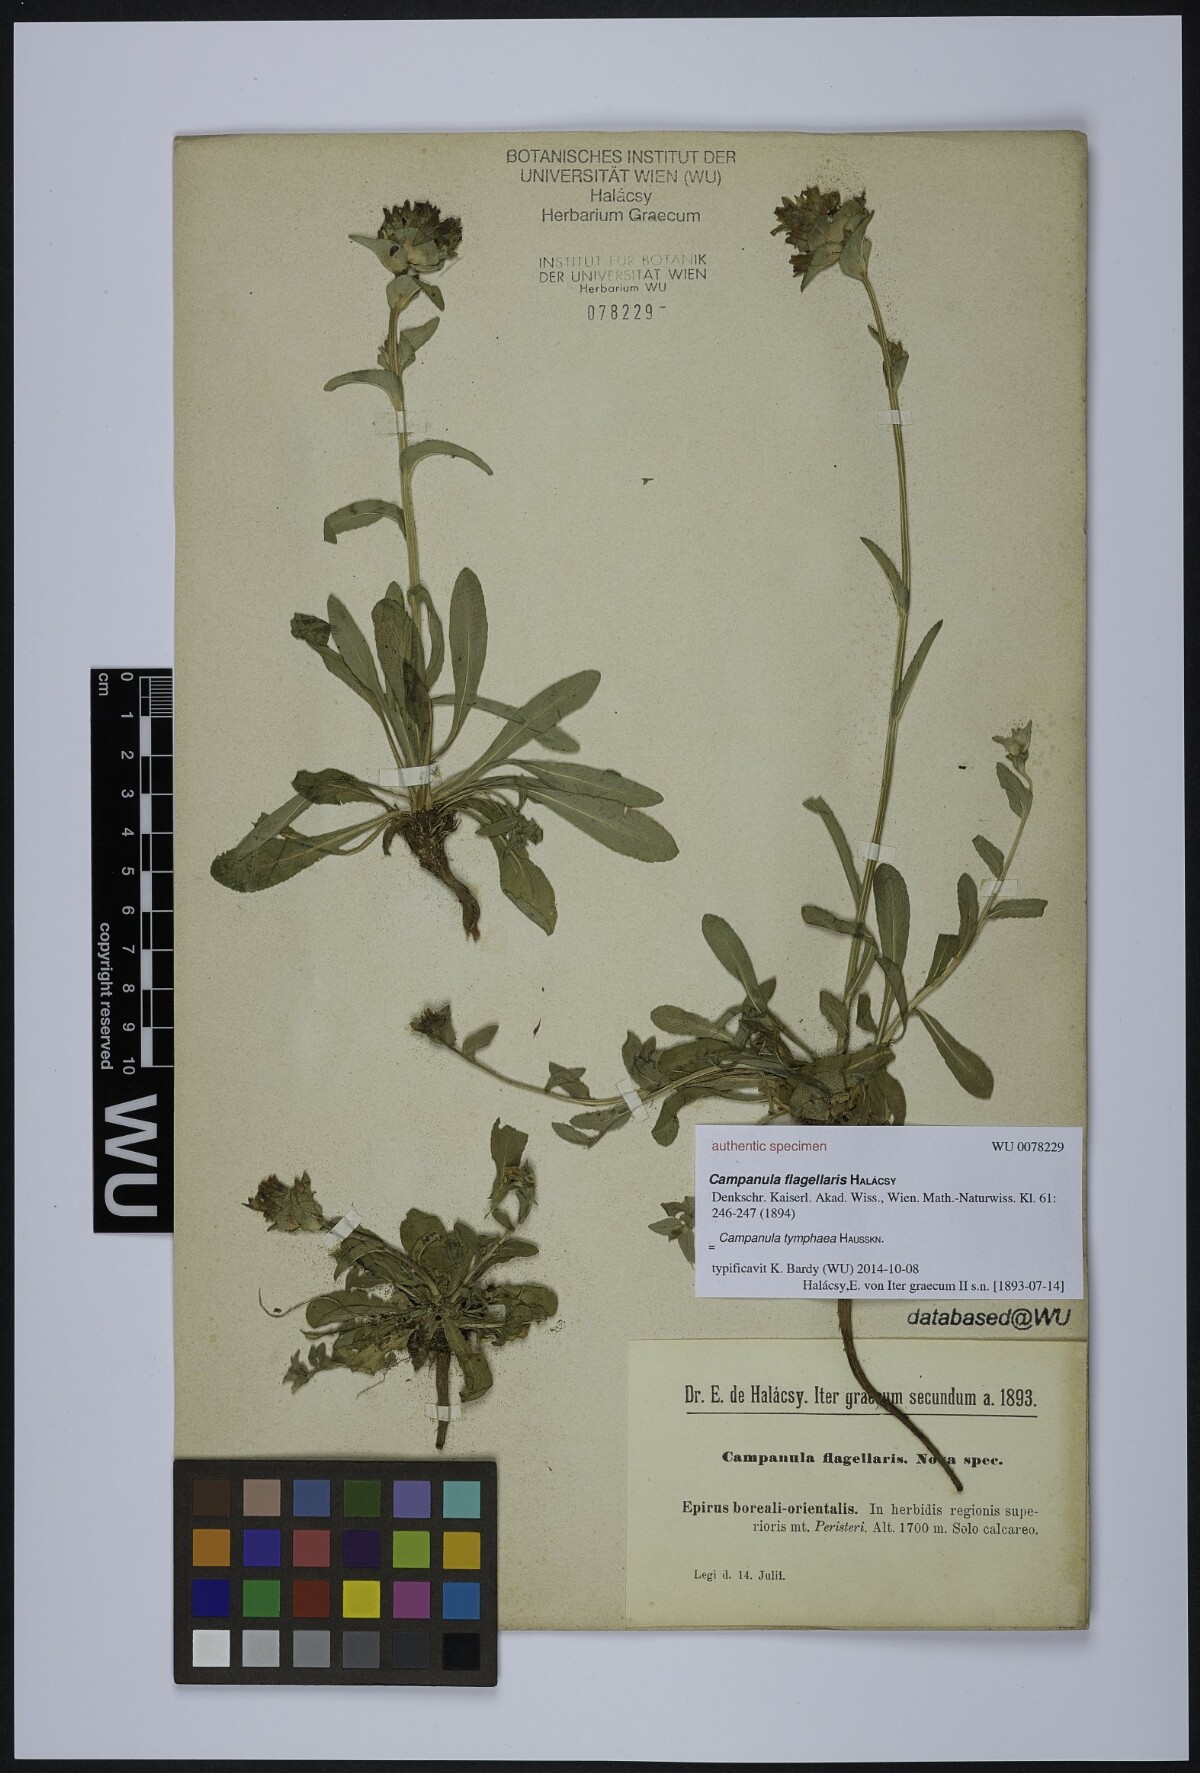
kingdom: Plantae
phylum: Tracheophyta
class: Magnoliopsida
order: Asterales
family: Campanulaceae
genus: Campanula
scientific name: Campanula tymphaea
